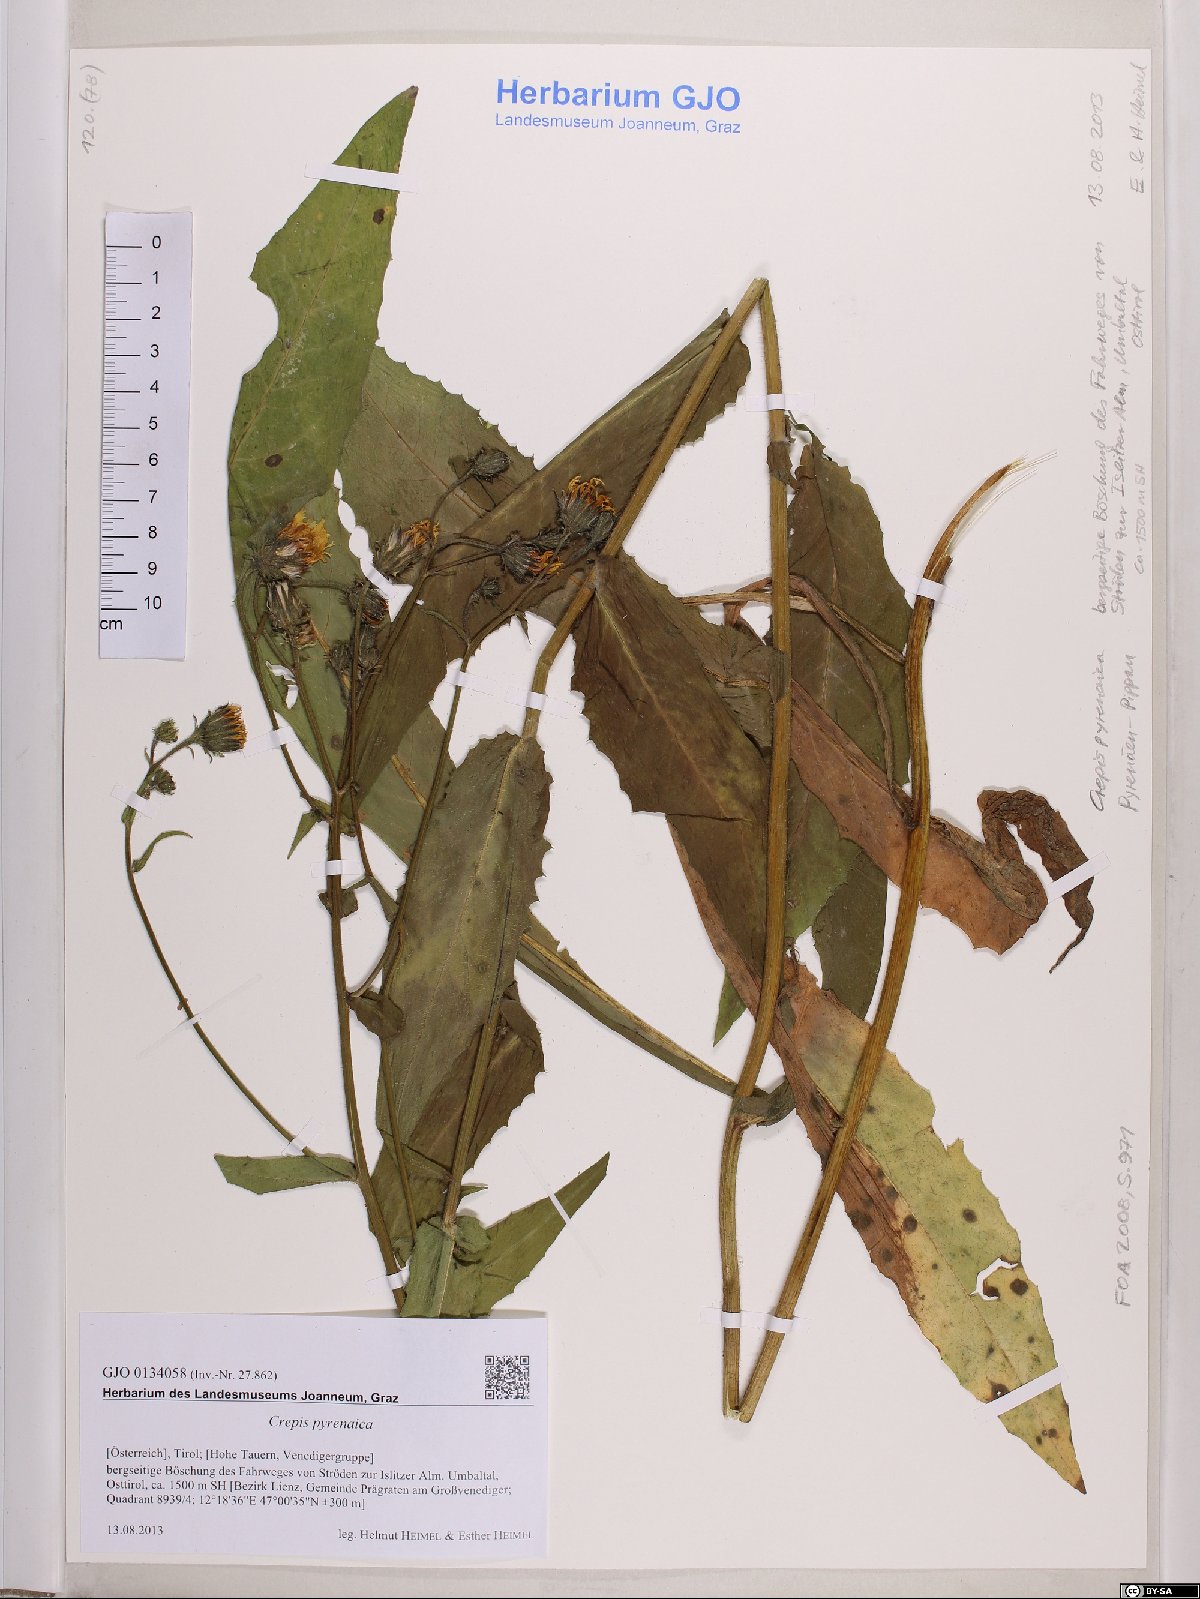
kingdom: Plantae
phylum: Tracheophyta
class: Magnoliopsida
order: Asterales
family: Asteraceae
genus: Crepis
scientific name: Crepis pyrenaica
